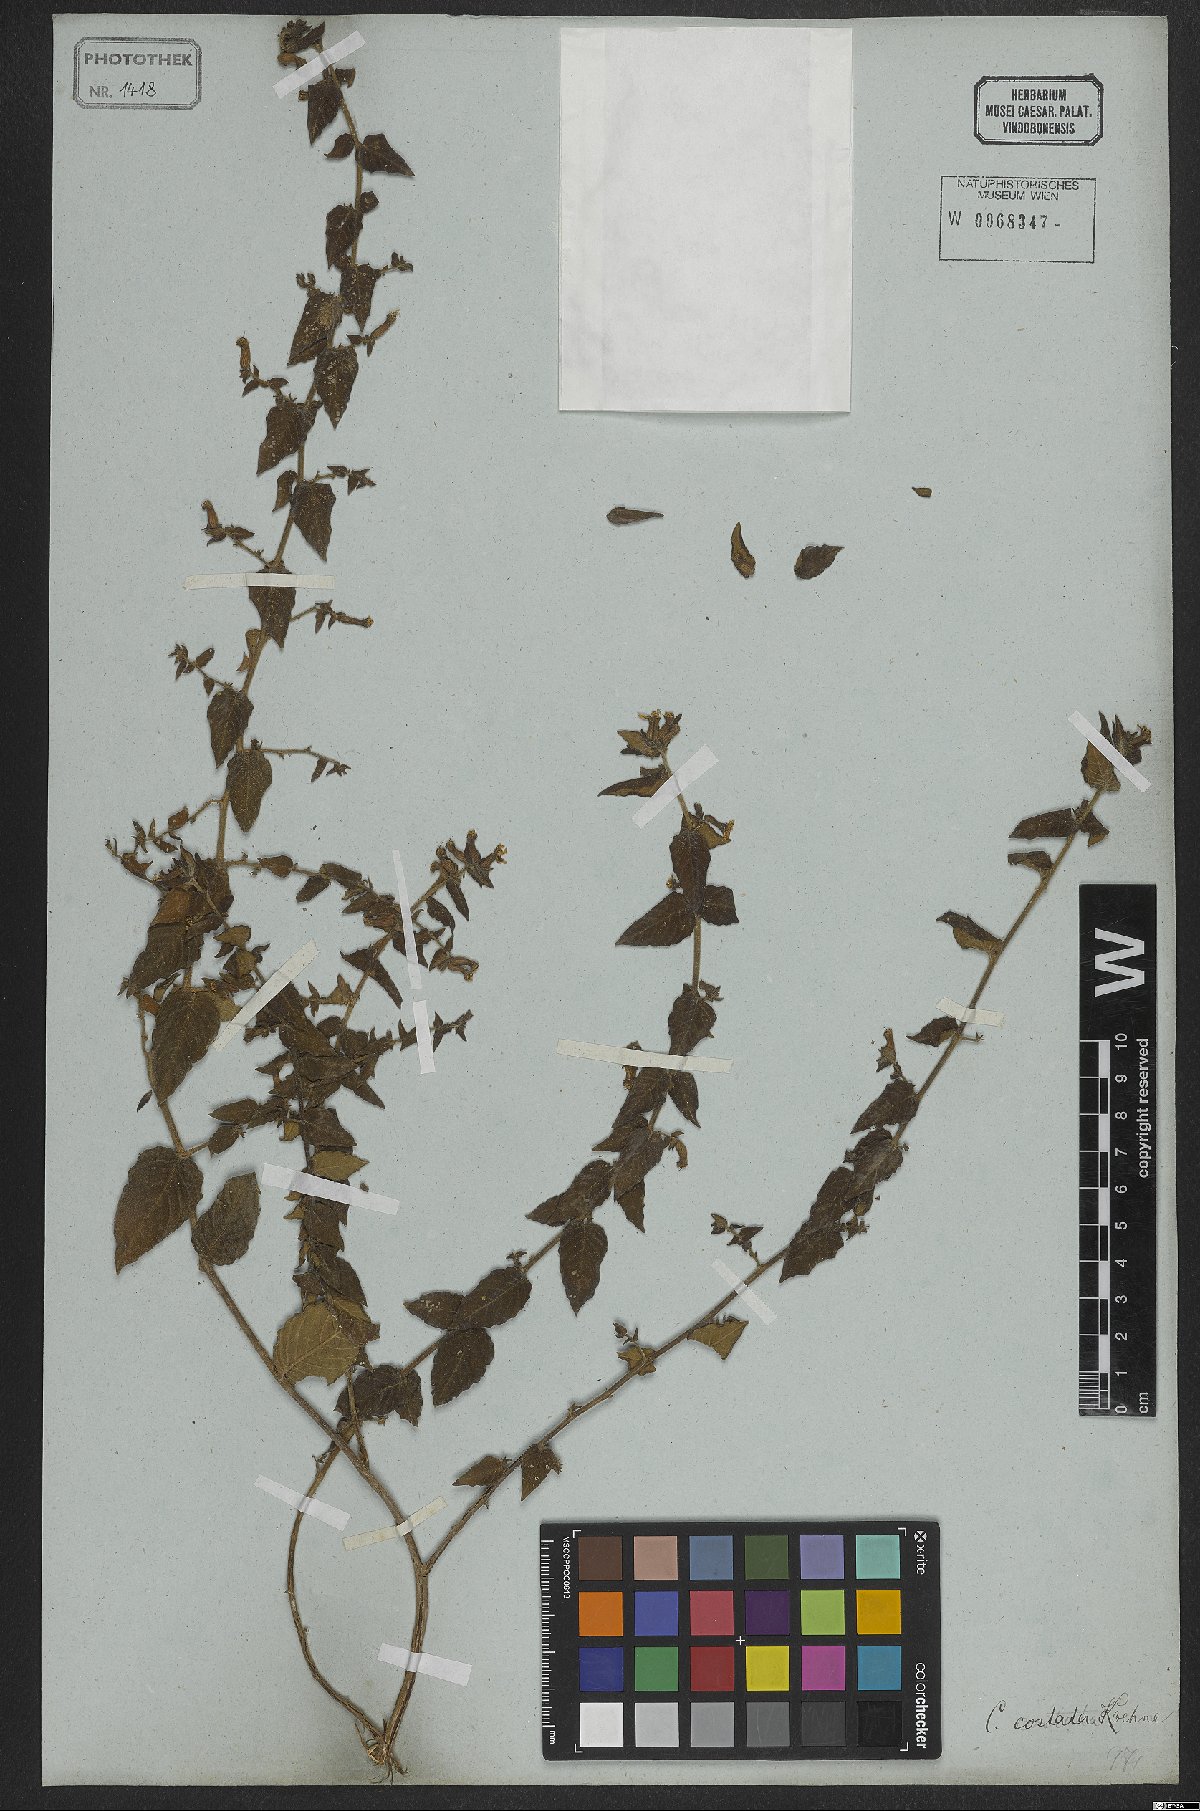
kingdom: Plantae
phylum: Tracheophyta
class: Magnoliopsida
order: Myrtales
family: Lythraceae
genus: Cuphea
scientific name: Cuphea sessiliflora
